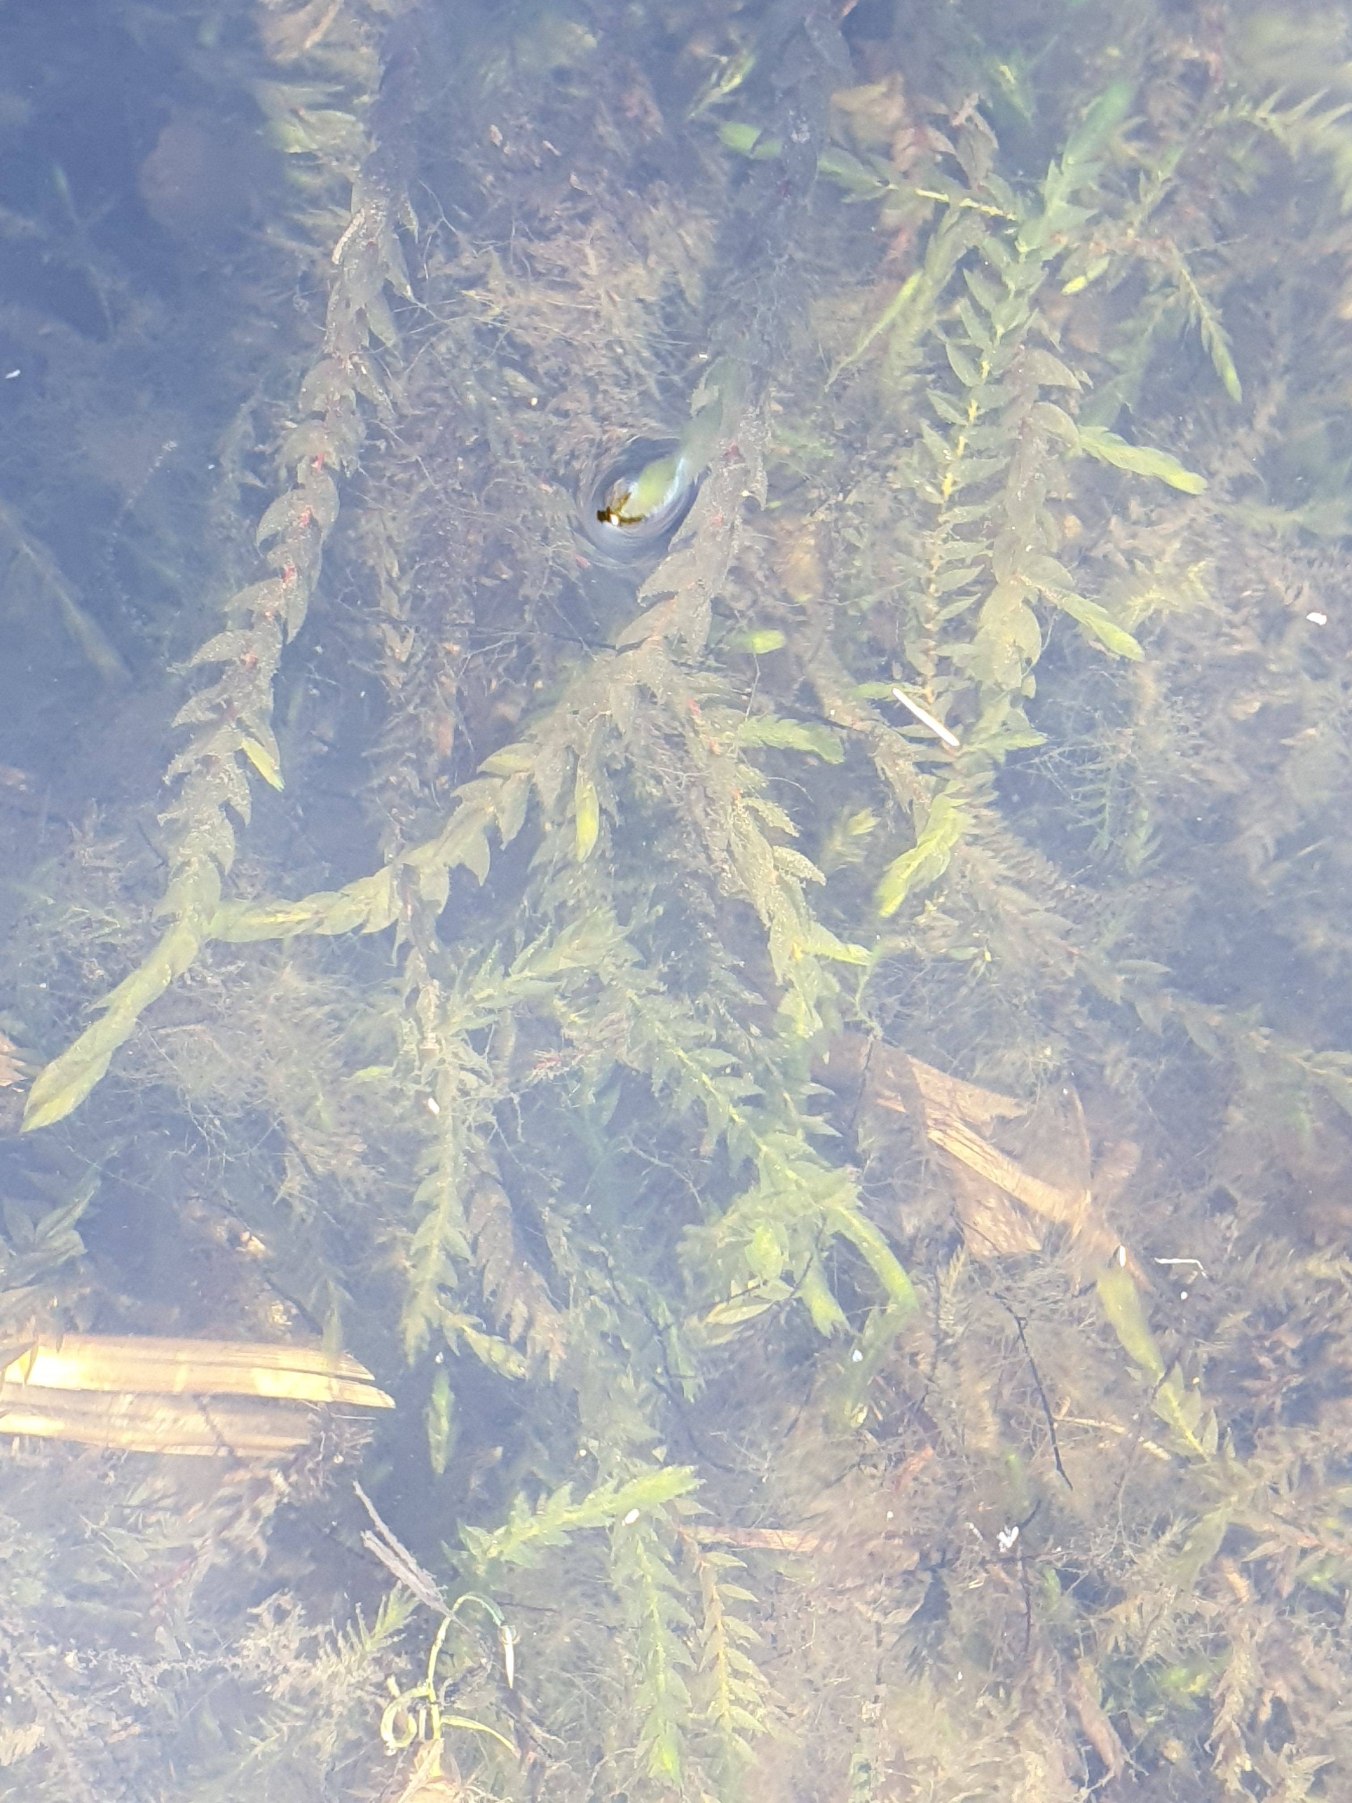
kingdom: Plantae
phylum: Bryophyta
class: Bryopsida
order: Hypnales
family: Fontinalaceae
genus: Fontinalis
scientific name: Fontinalis antipyretica
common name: Stor kildemos
